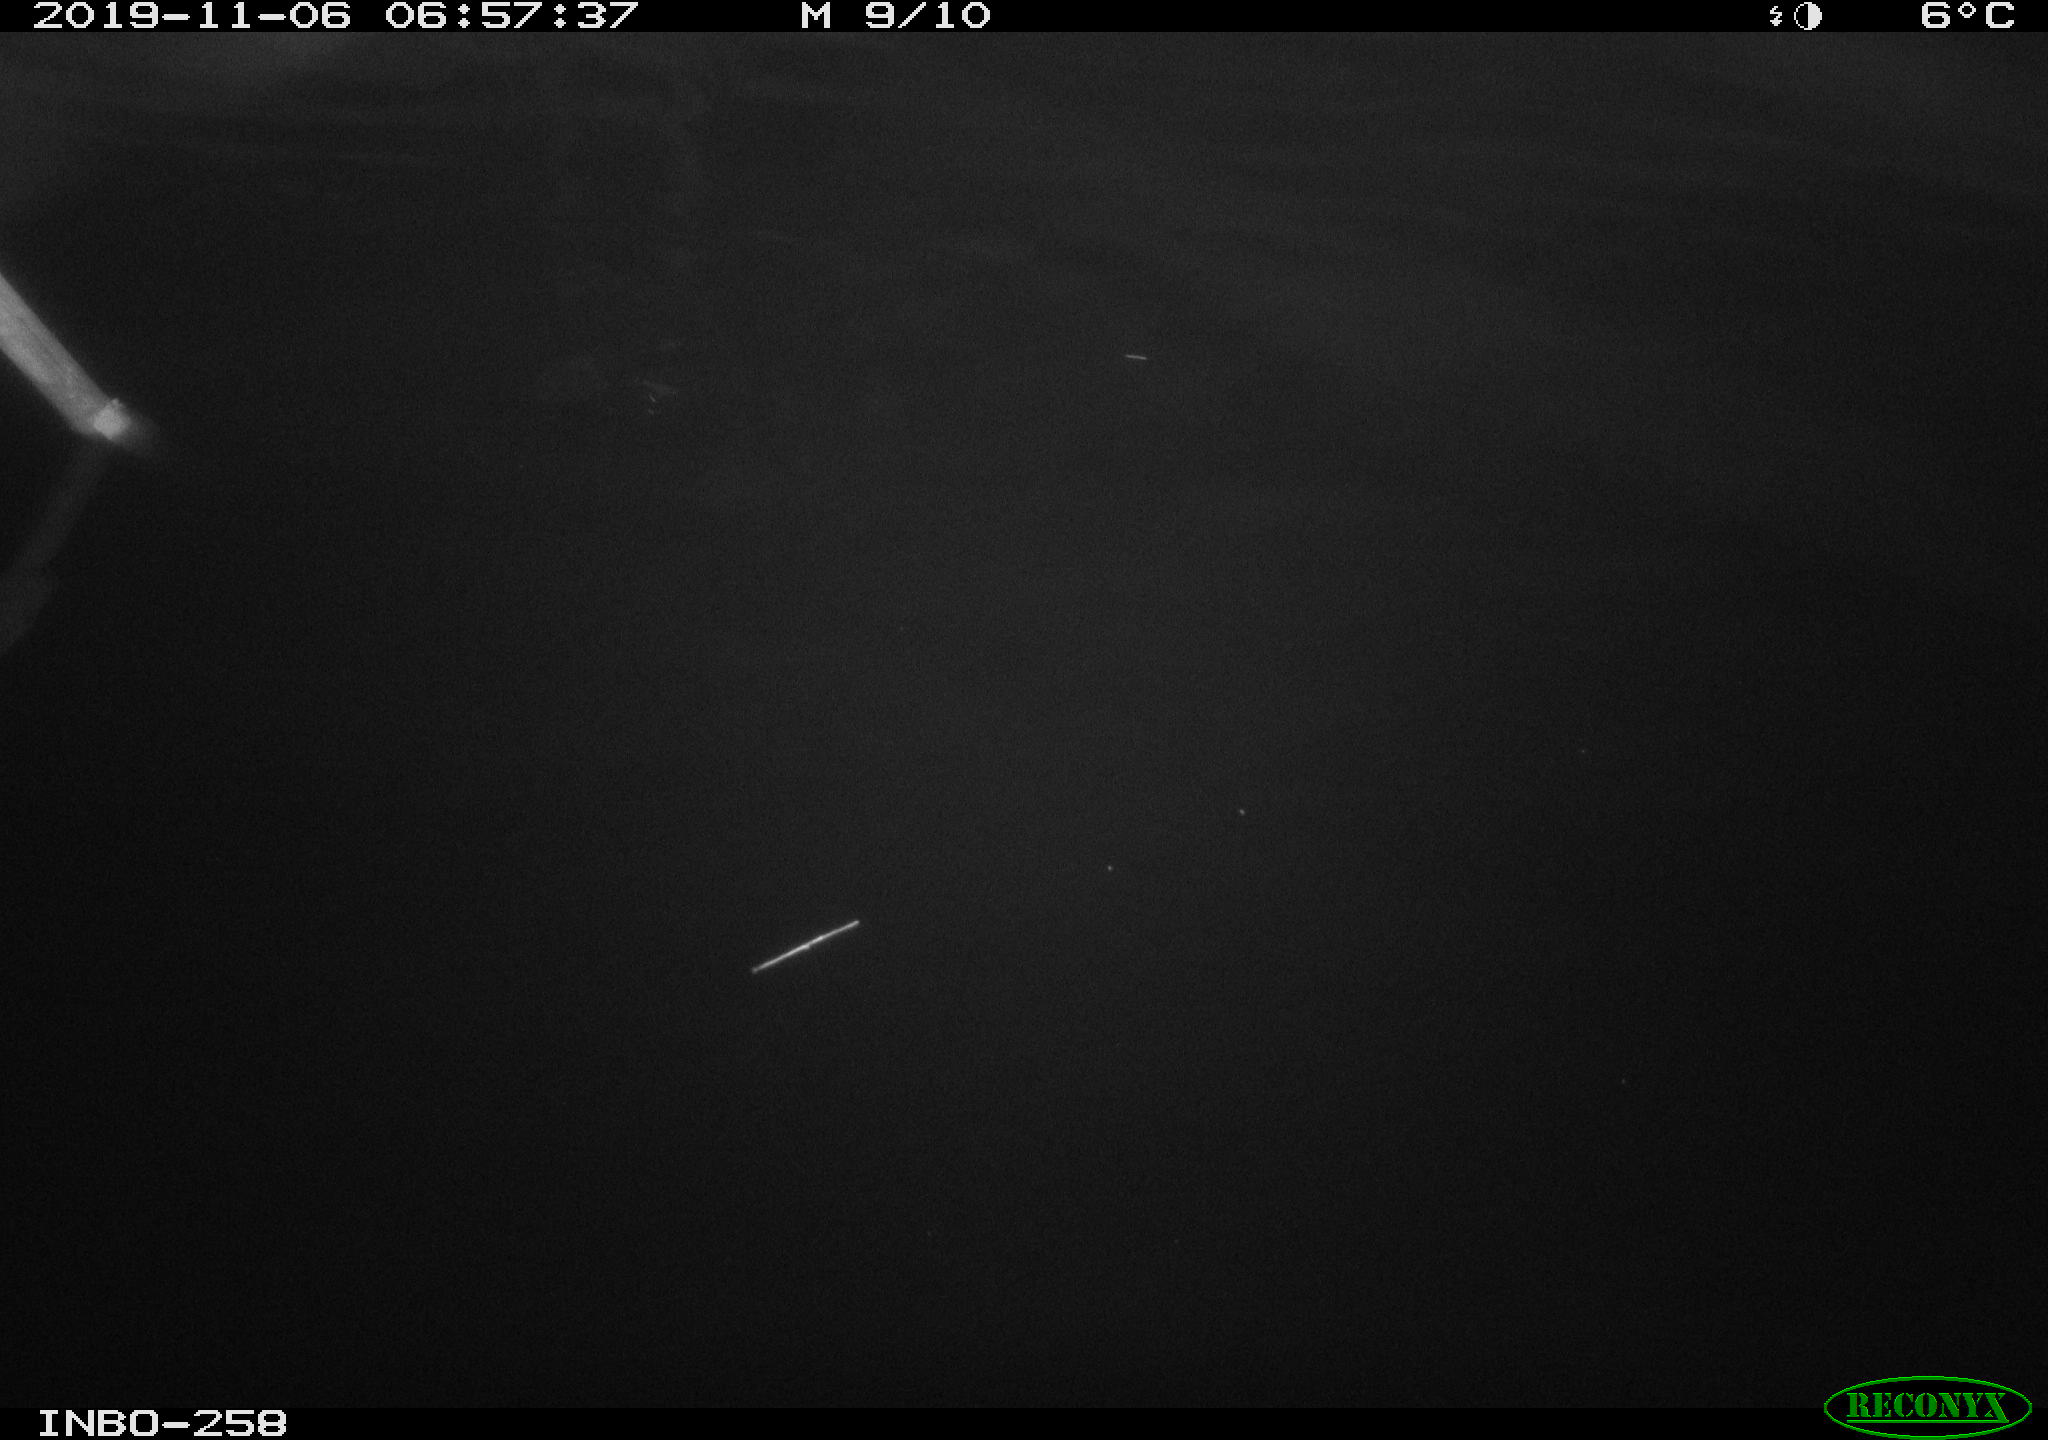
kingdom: Animalia
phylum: Chordata
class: Aves
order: Anseriformes
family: Anatidae
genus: Anas
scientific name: Anas platyrhynchos
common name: Mallard
